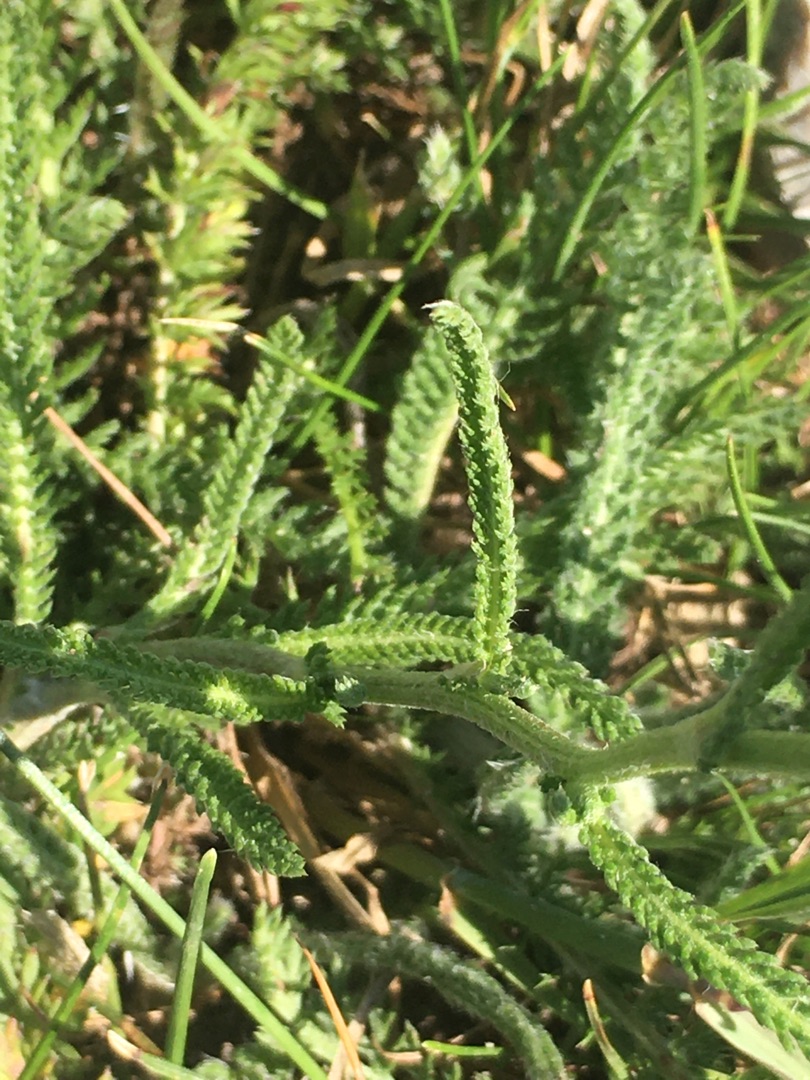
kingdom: Plantae
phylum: Tracheophyta
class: Magnoliopsida
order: Asterales
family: Asteraceae
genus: Achillea
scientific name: Achillea millefolium
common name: Almindelig røllike
